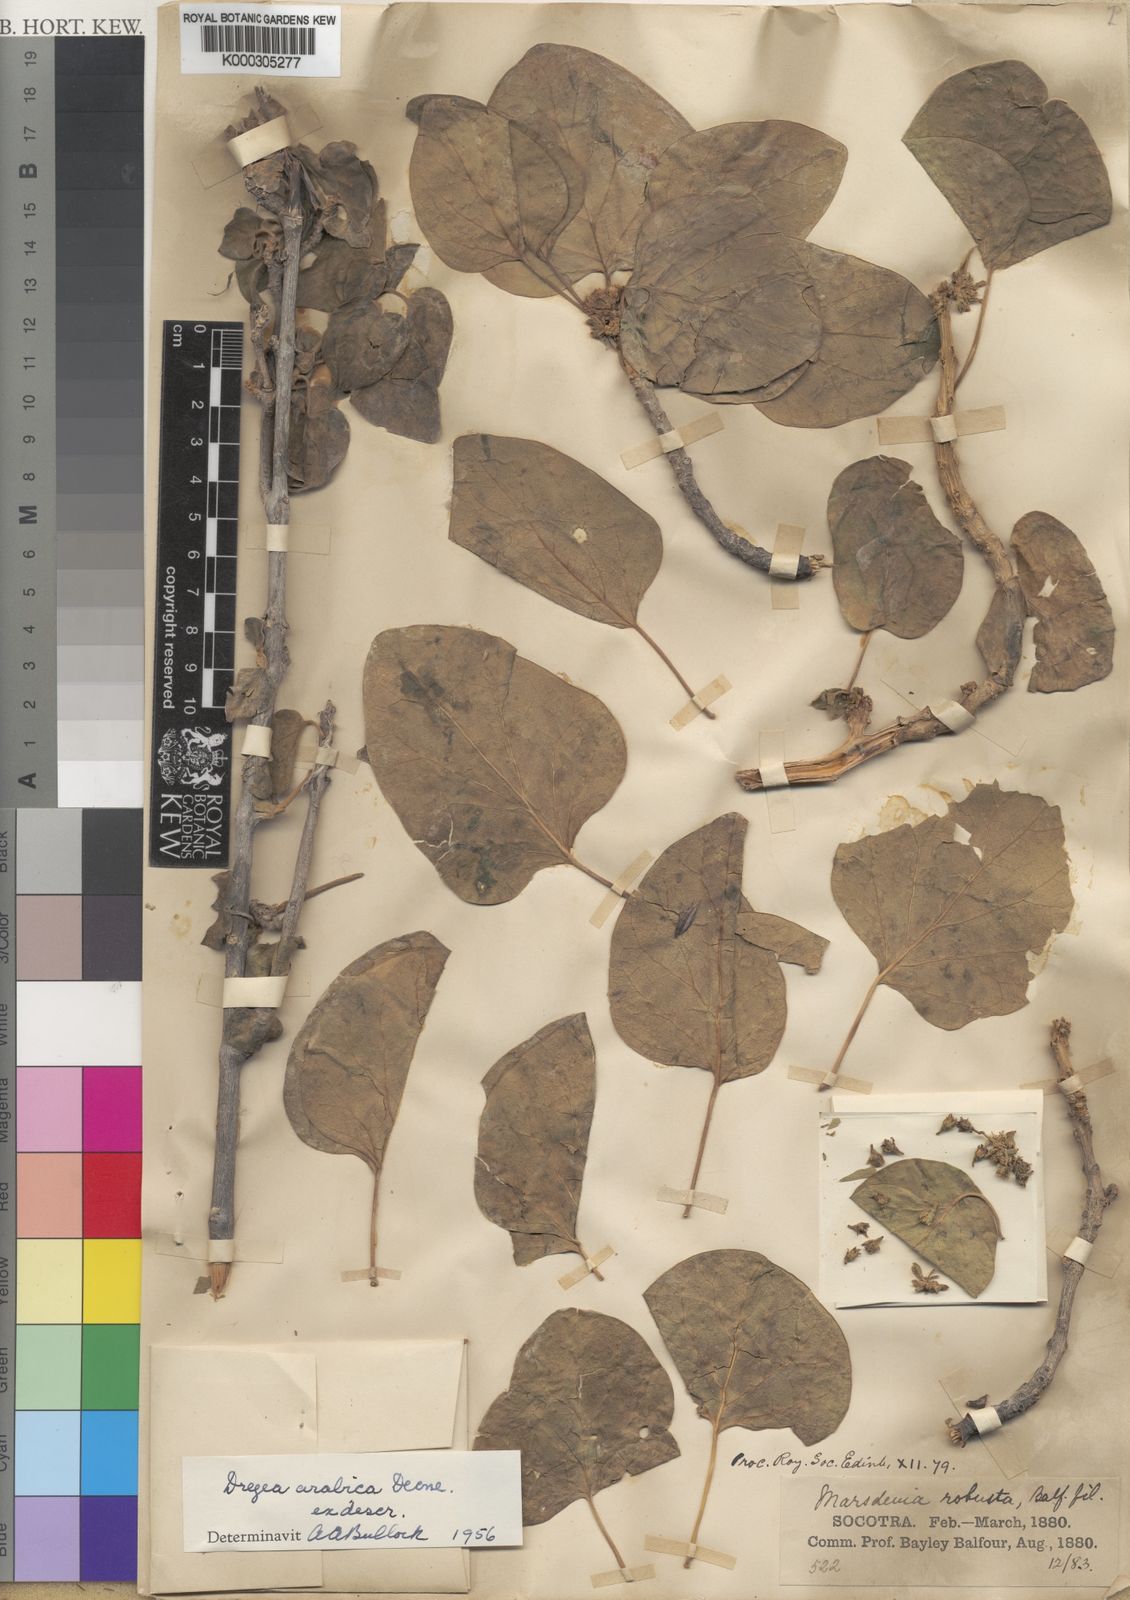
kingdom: Plantae
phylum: Tracheophyta
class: Magnoliopsida
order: Gentianales
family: Apocynaceae
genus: Stephanotis
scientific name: Stephanotis arabica
